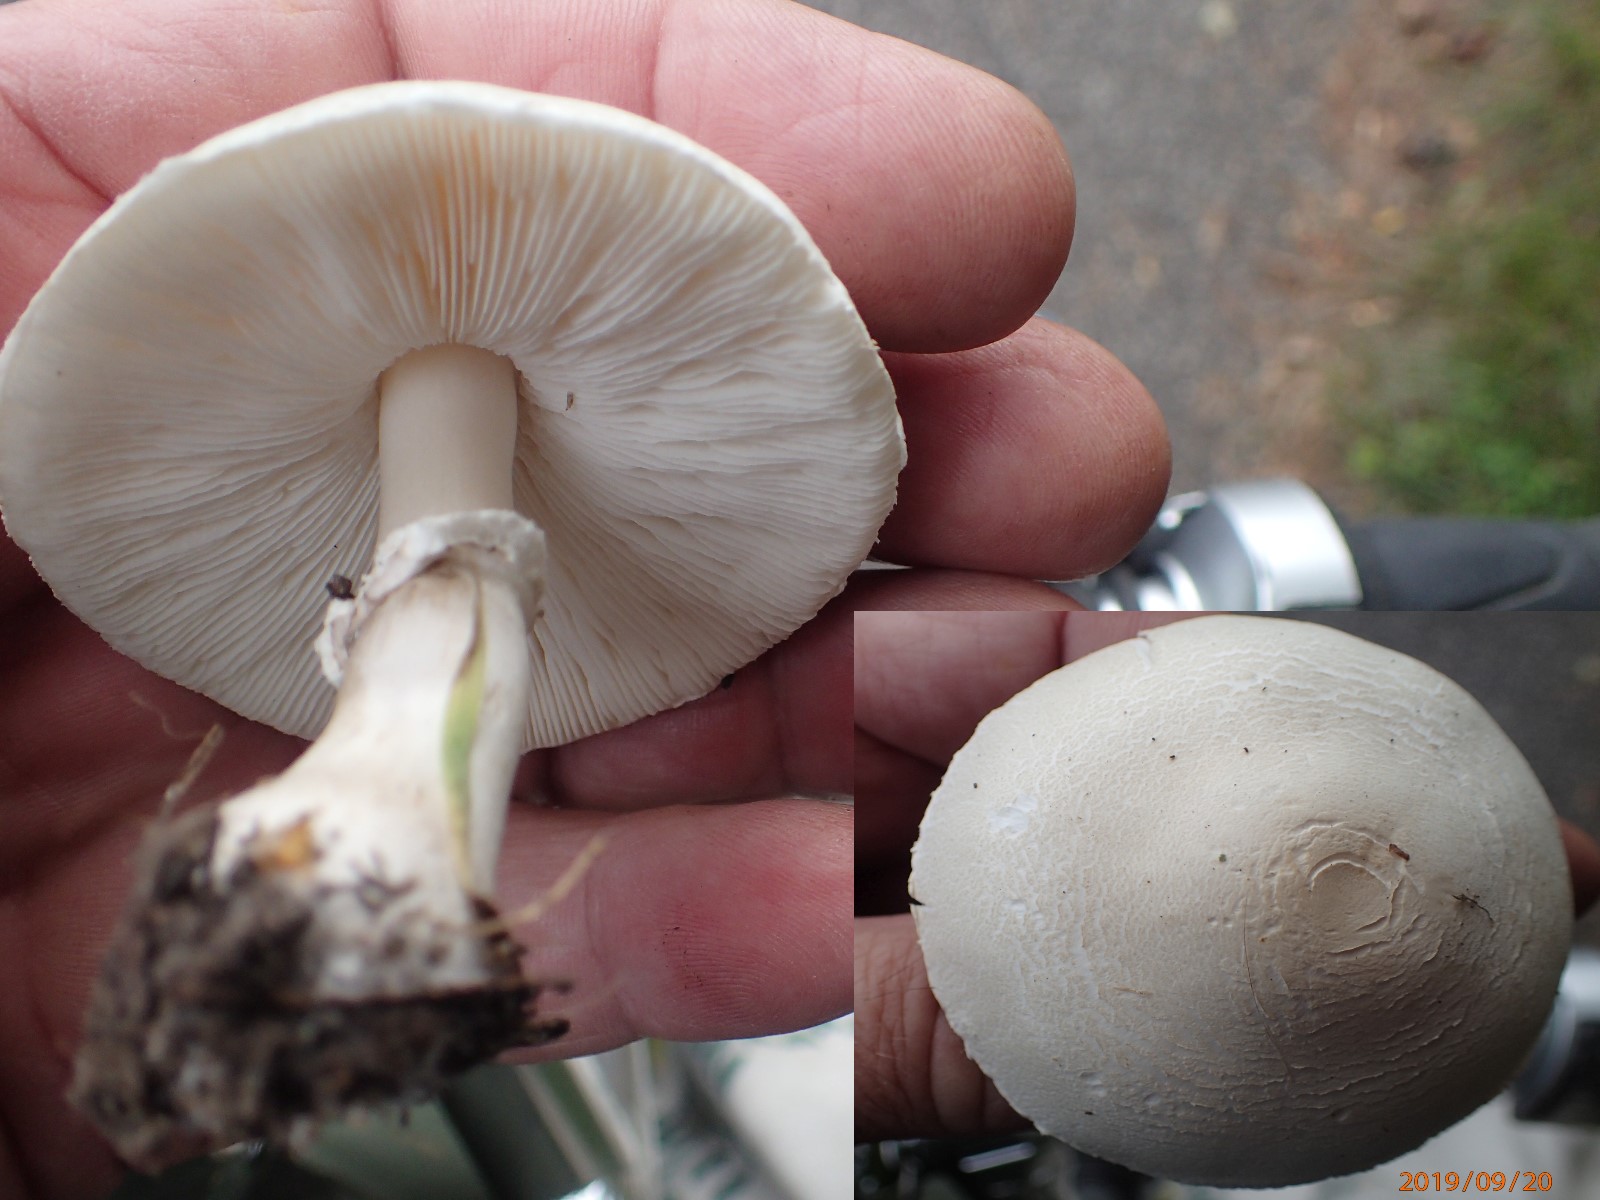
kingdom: Fungi
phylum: Basidiomycota
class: Agaricomycetes
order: Agaricales
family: Agaricaceae
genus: Leucoagaricus
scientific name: Leucoagaricus leucothites
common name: rosabladet silkehat
